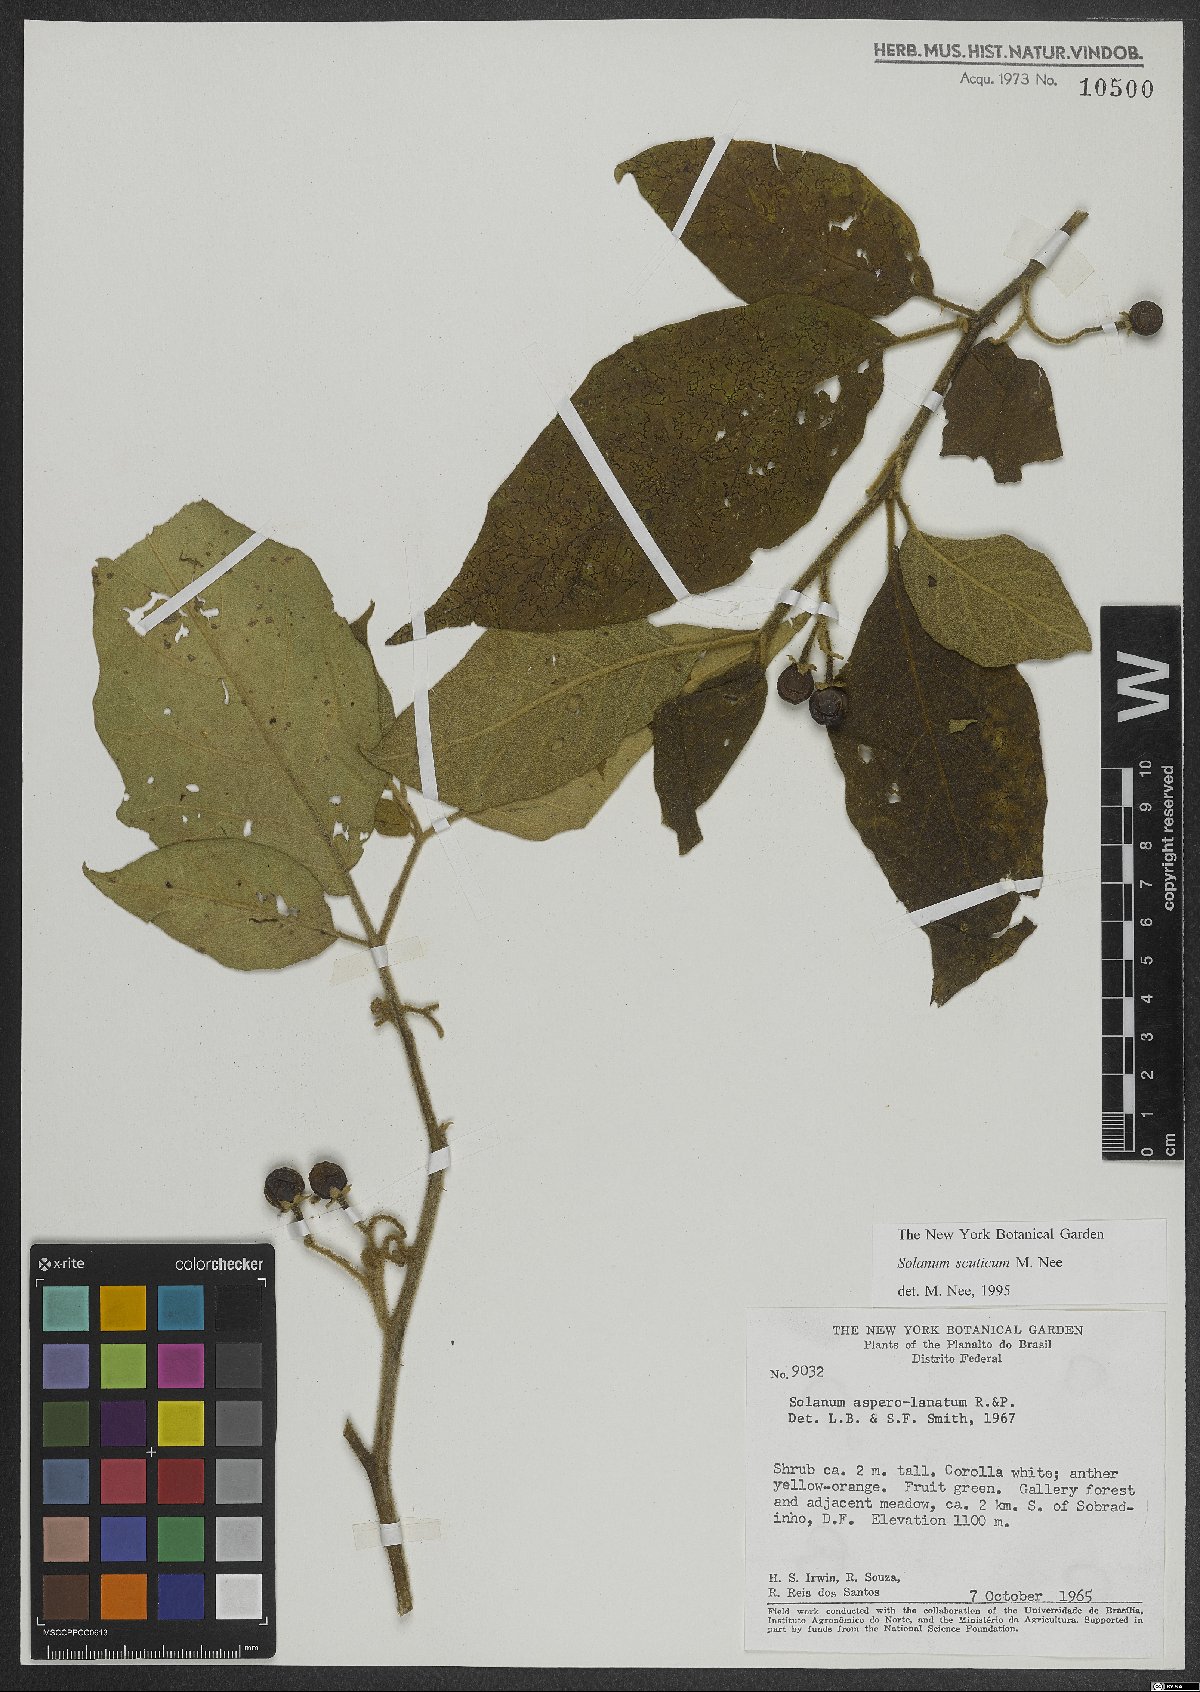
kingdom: Plantae
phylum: Tracheophyta
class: Magnoliopsida
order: Solanales
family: Solanaceae
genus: Solanum
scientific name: Solanum scuticum
